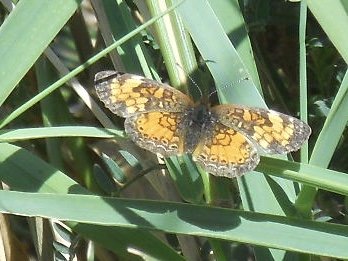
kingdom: Animalia
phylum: Arthropoda
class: Insecta
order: Lepidoptera
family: Nymphalidae
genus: Phyciodes
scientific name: Phyciodes tharos
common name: Northern Crescent
